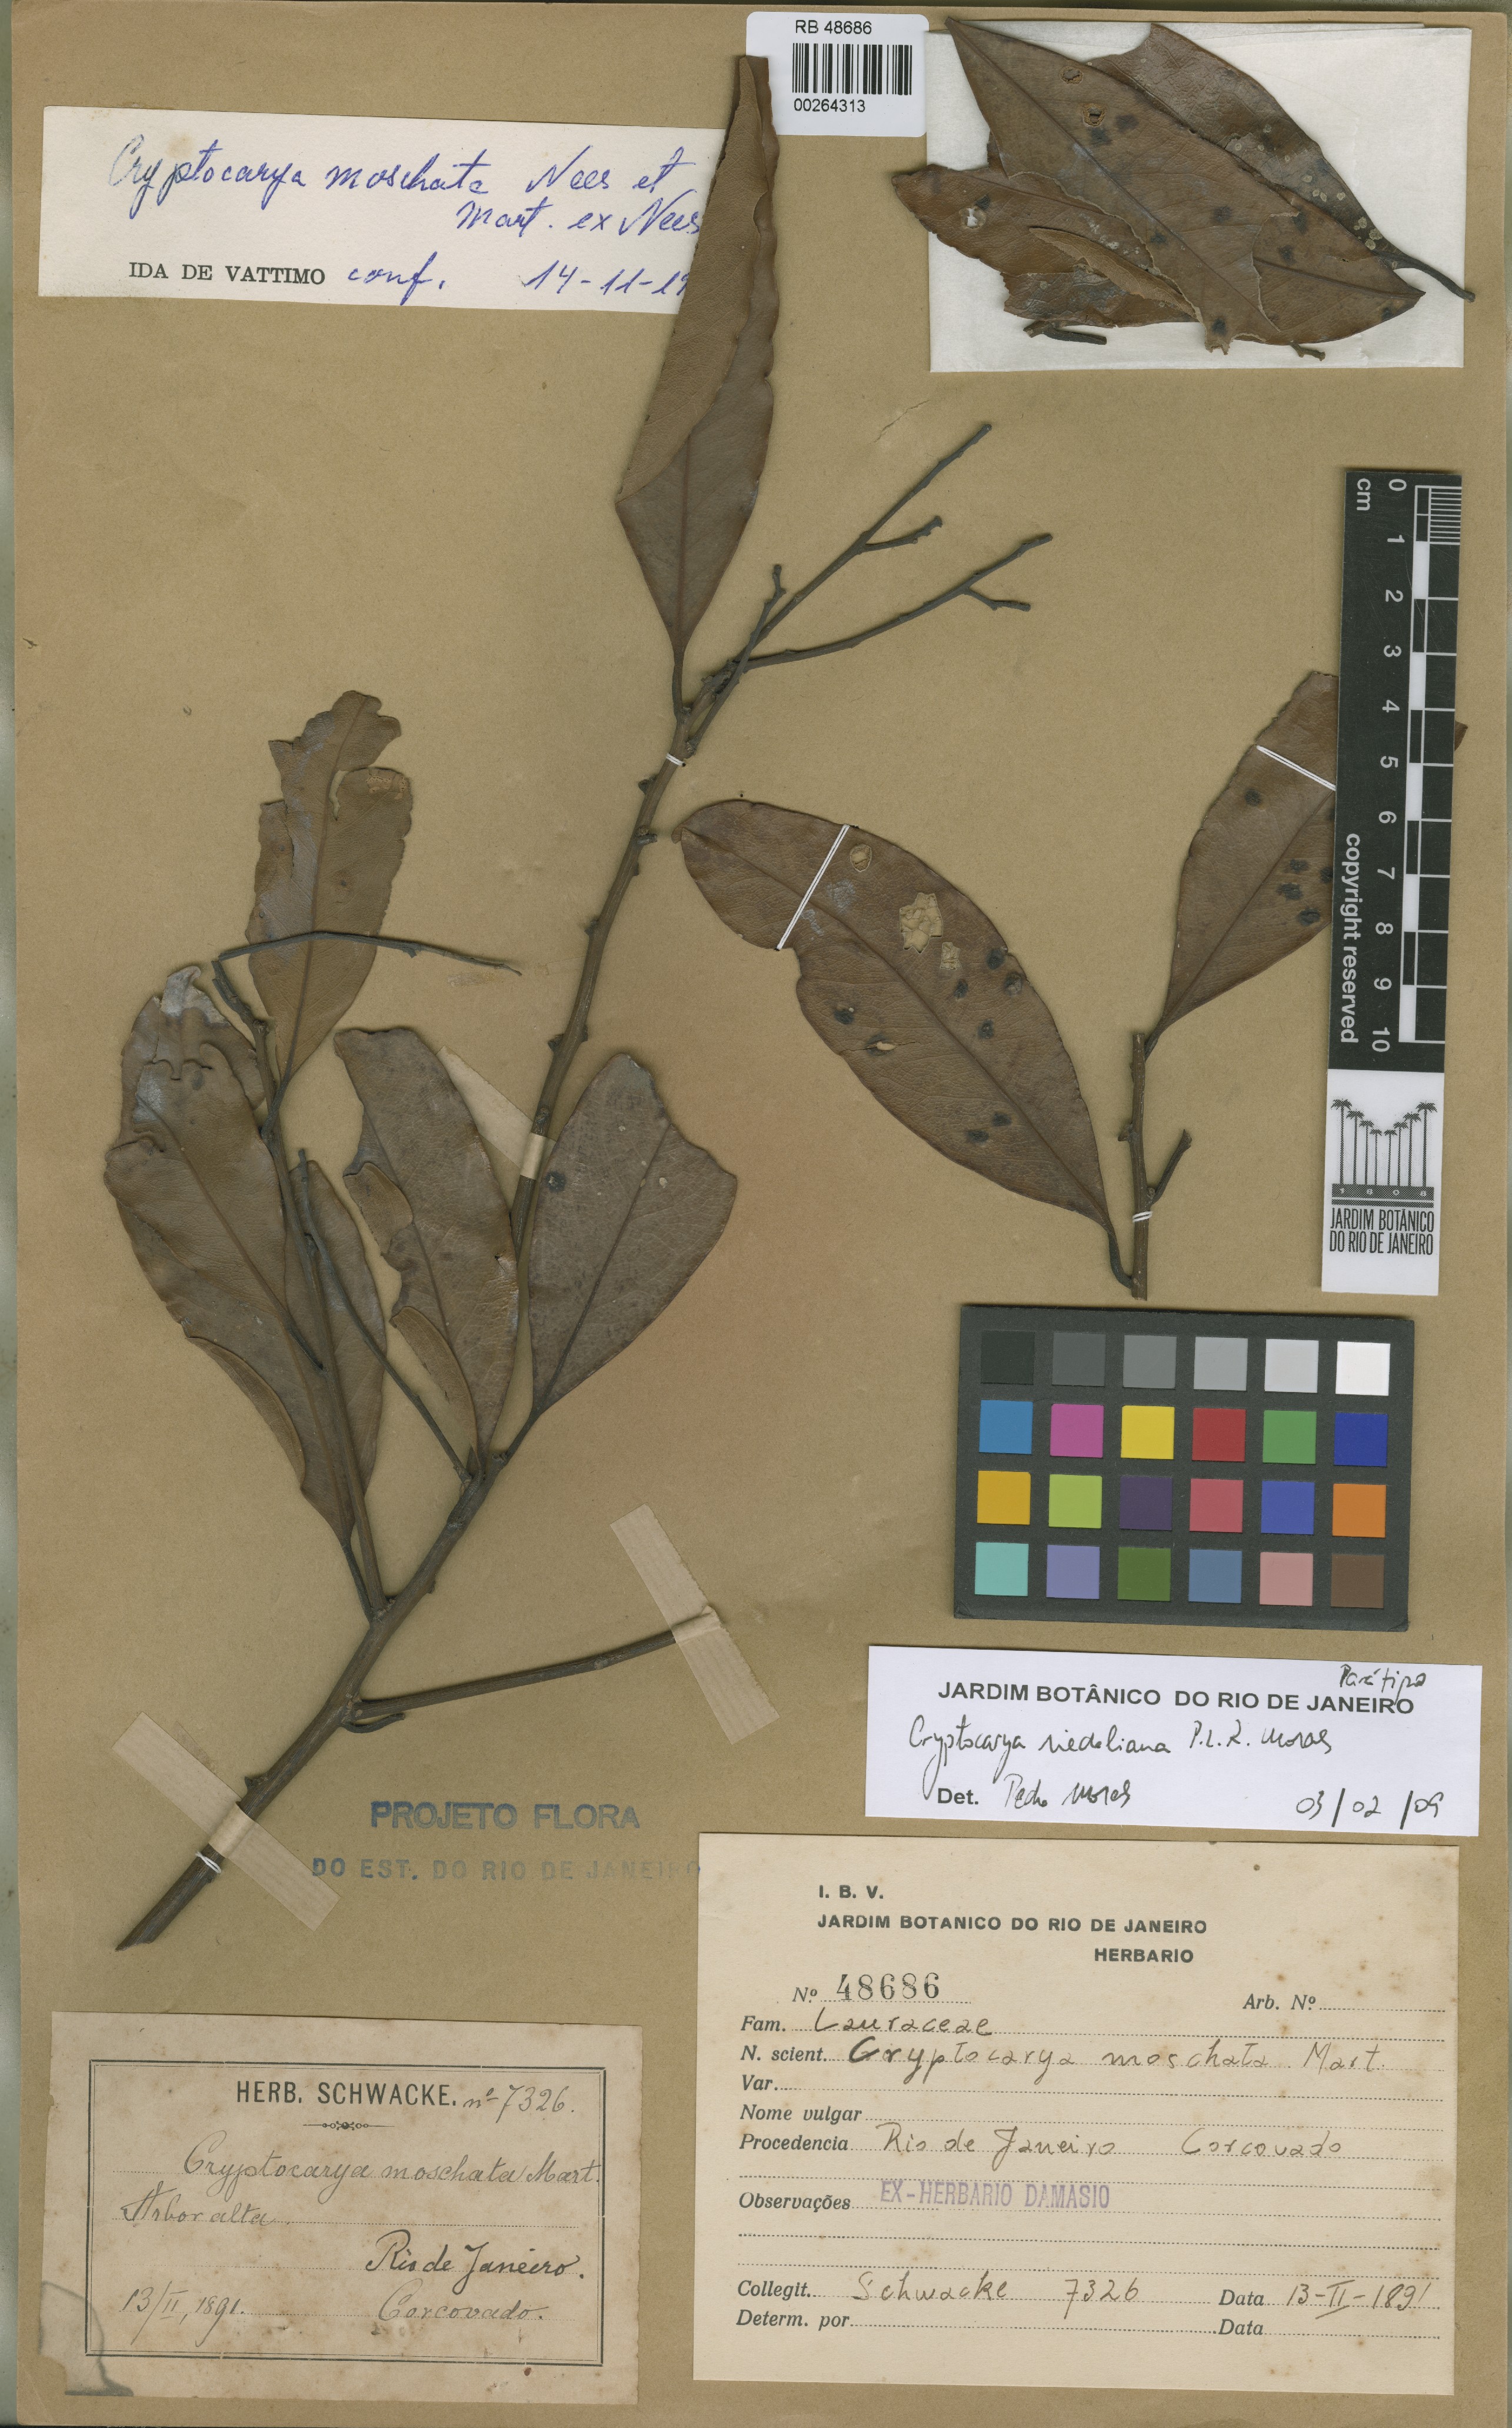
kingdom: Plantae
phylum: Tracheophyta
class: Magnoliopsida
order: Laurales
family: Lauraceae
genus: Cryptocarya
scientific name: Cryptocarya riedeliana
